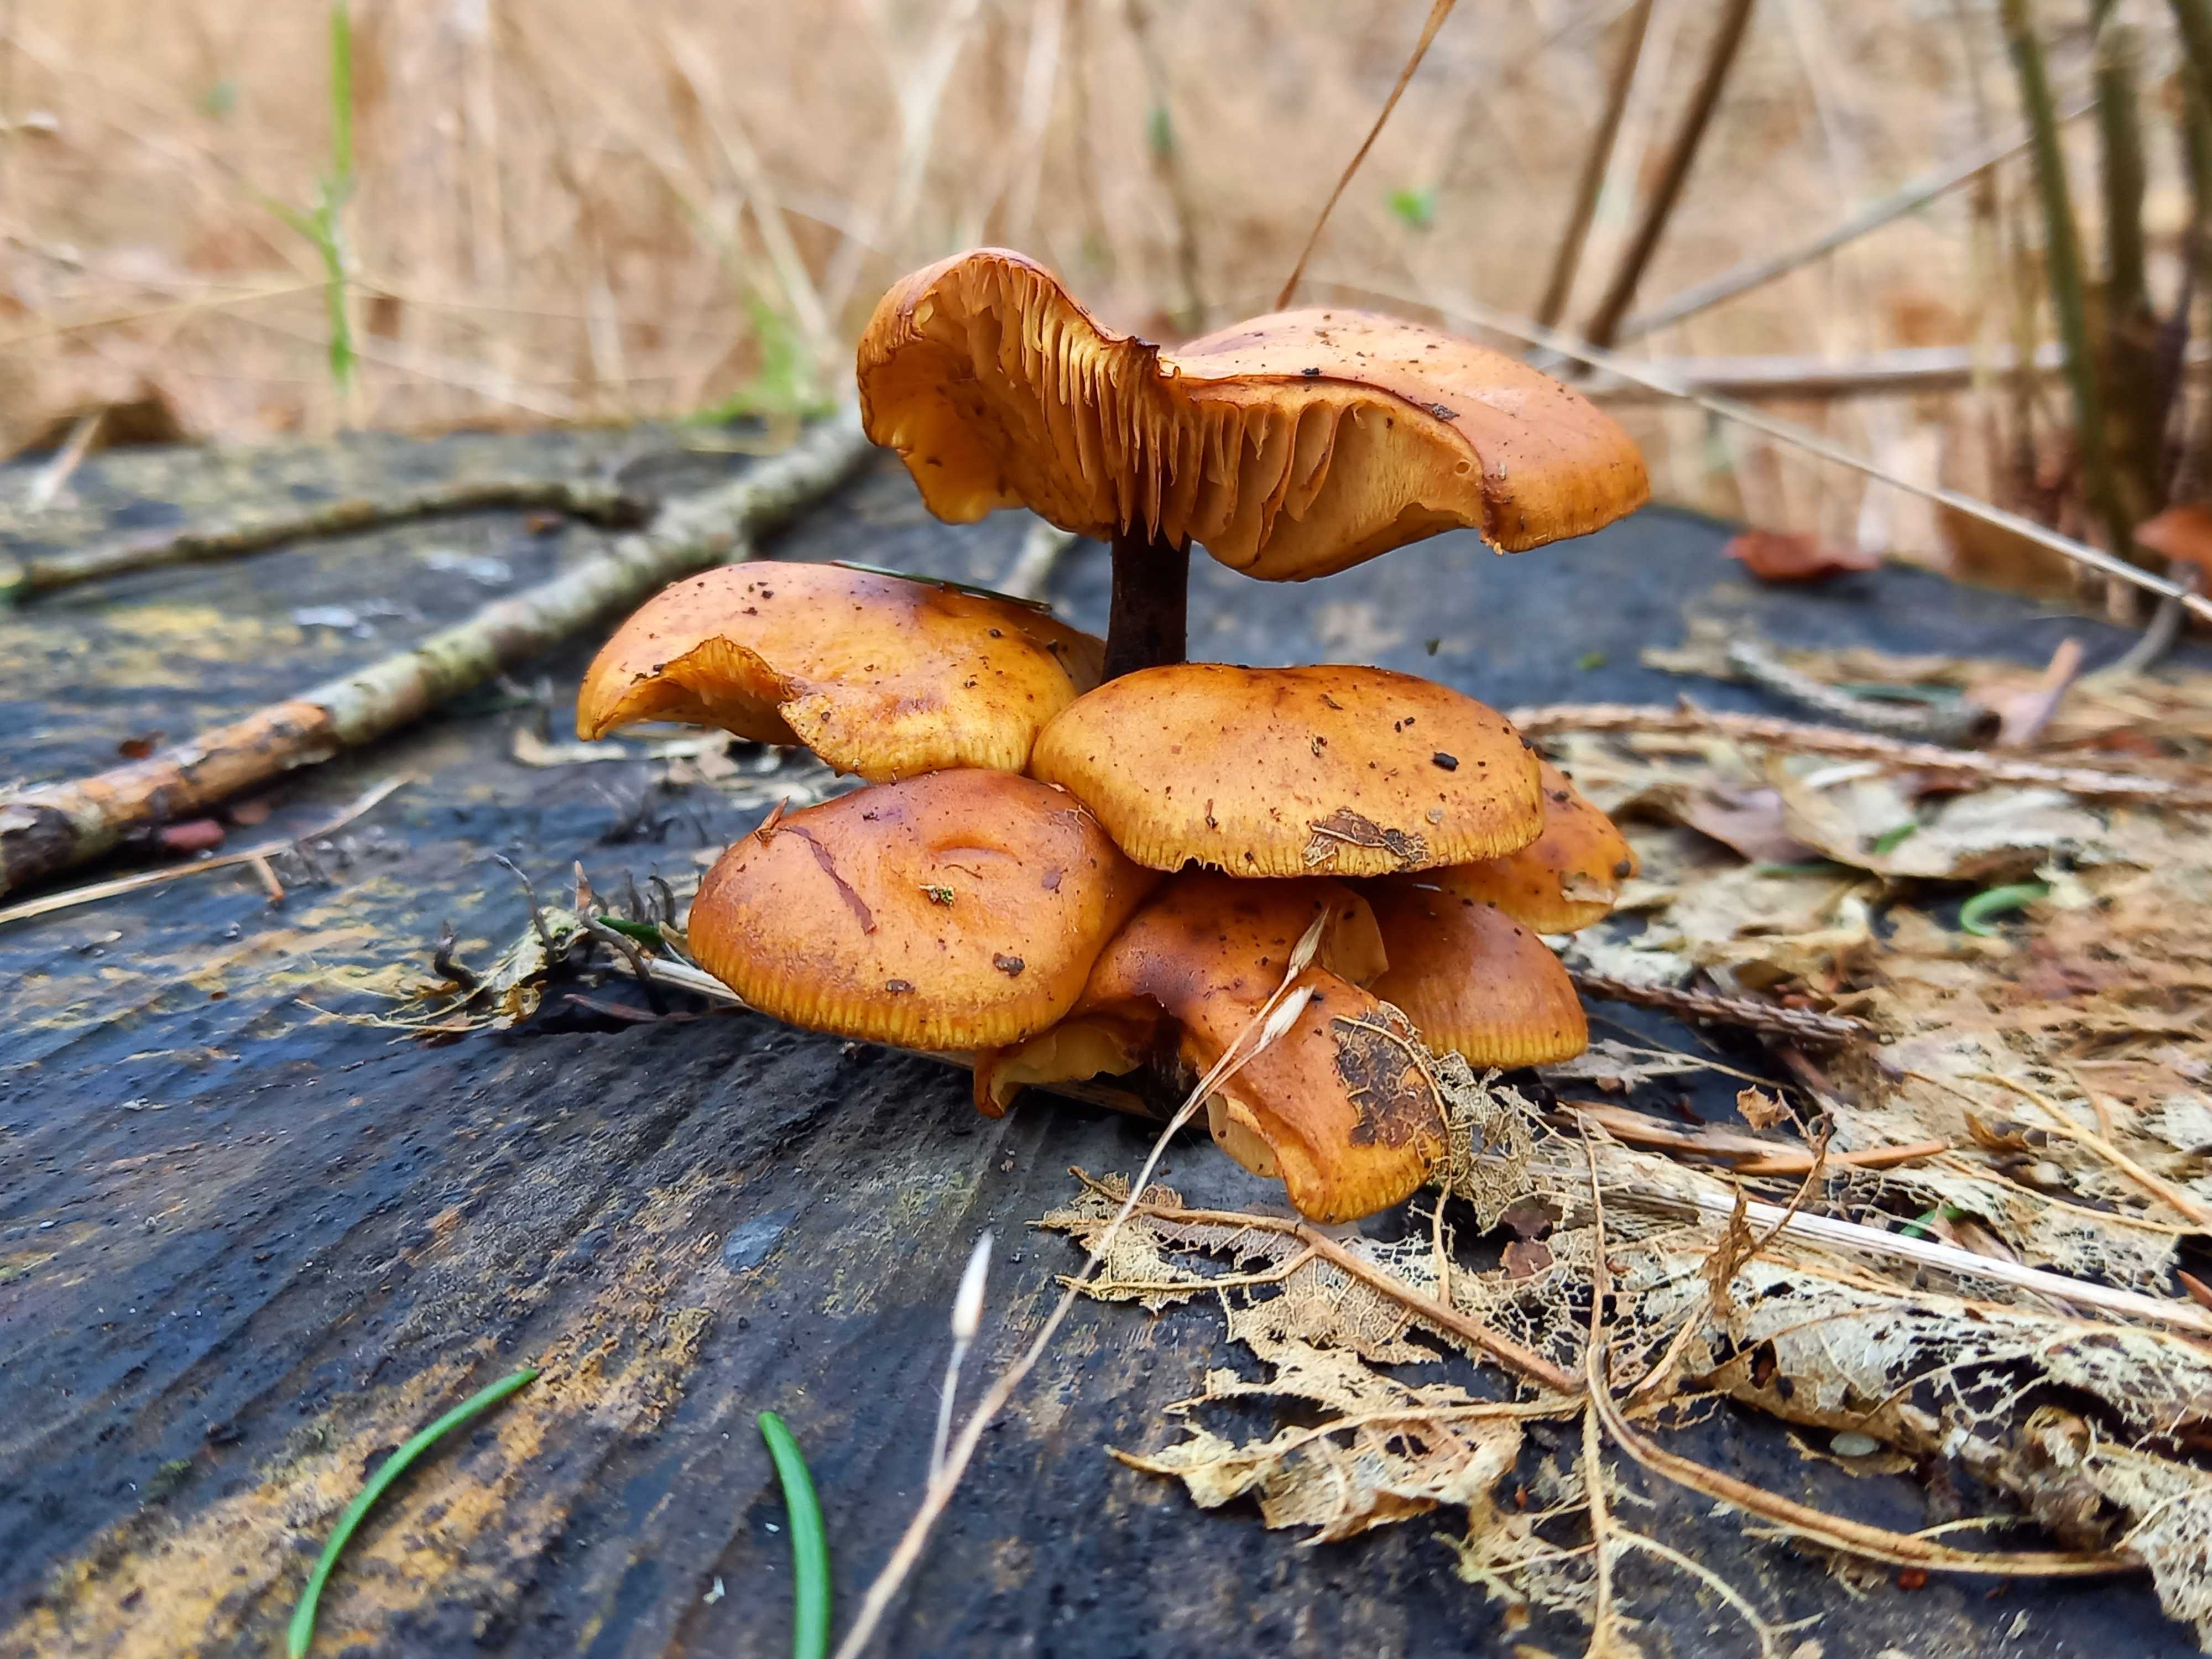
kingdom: Fungi
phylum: Basidiomycota
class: Agaricomycetes
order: Agaricales
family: Physalacriaceae
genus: Flammulina
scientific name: Flammulina
